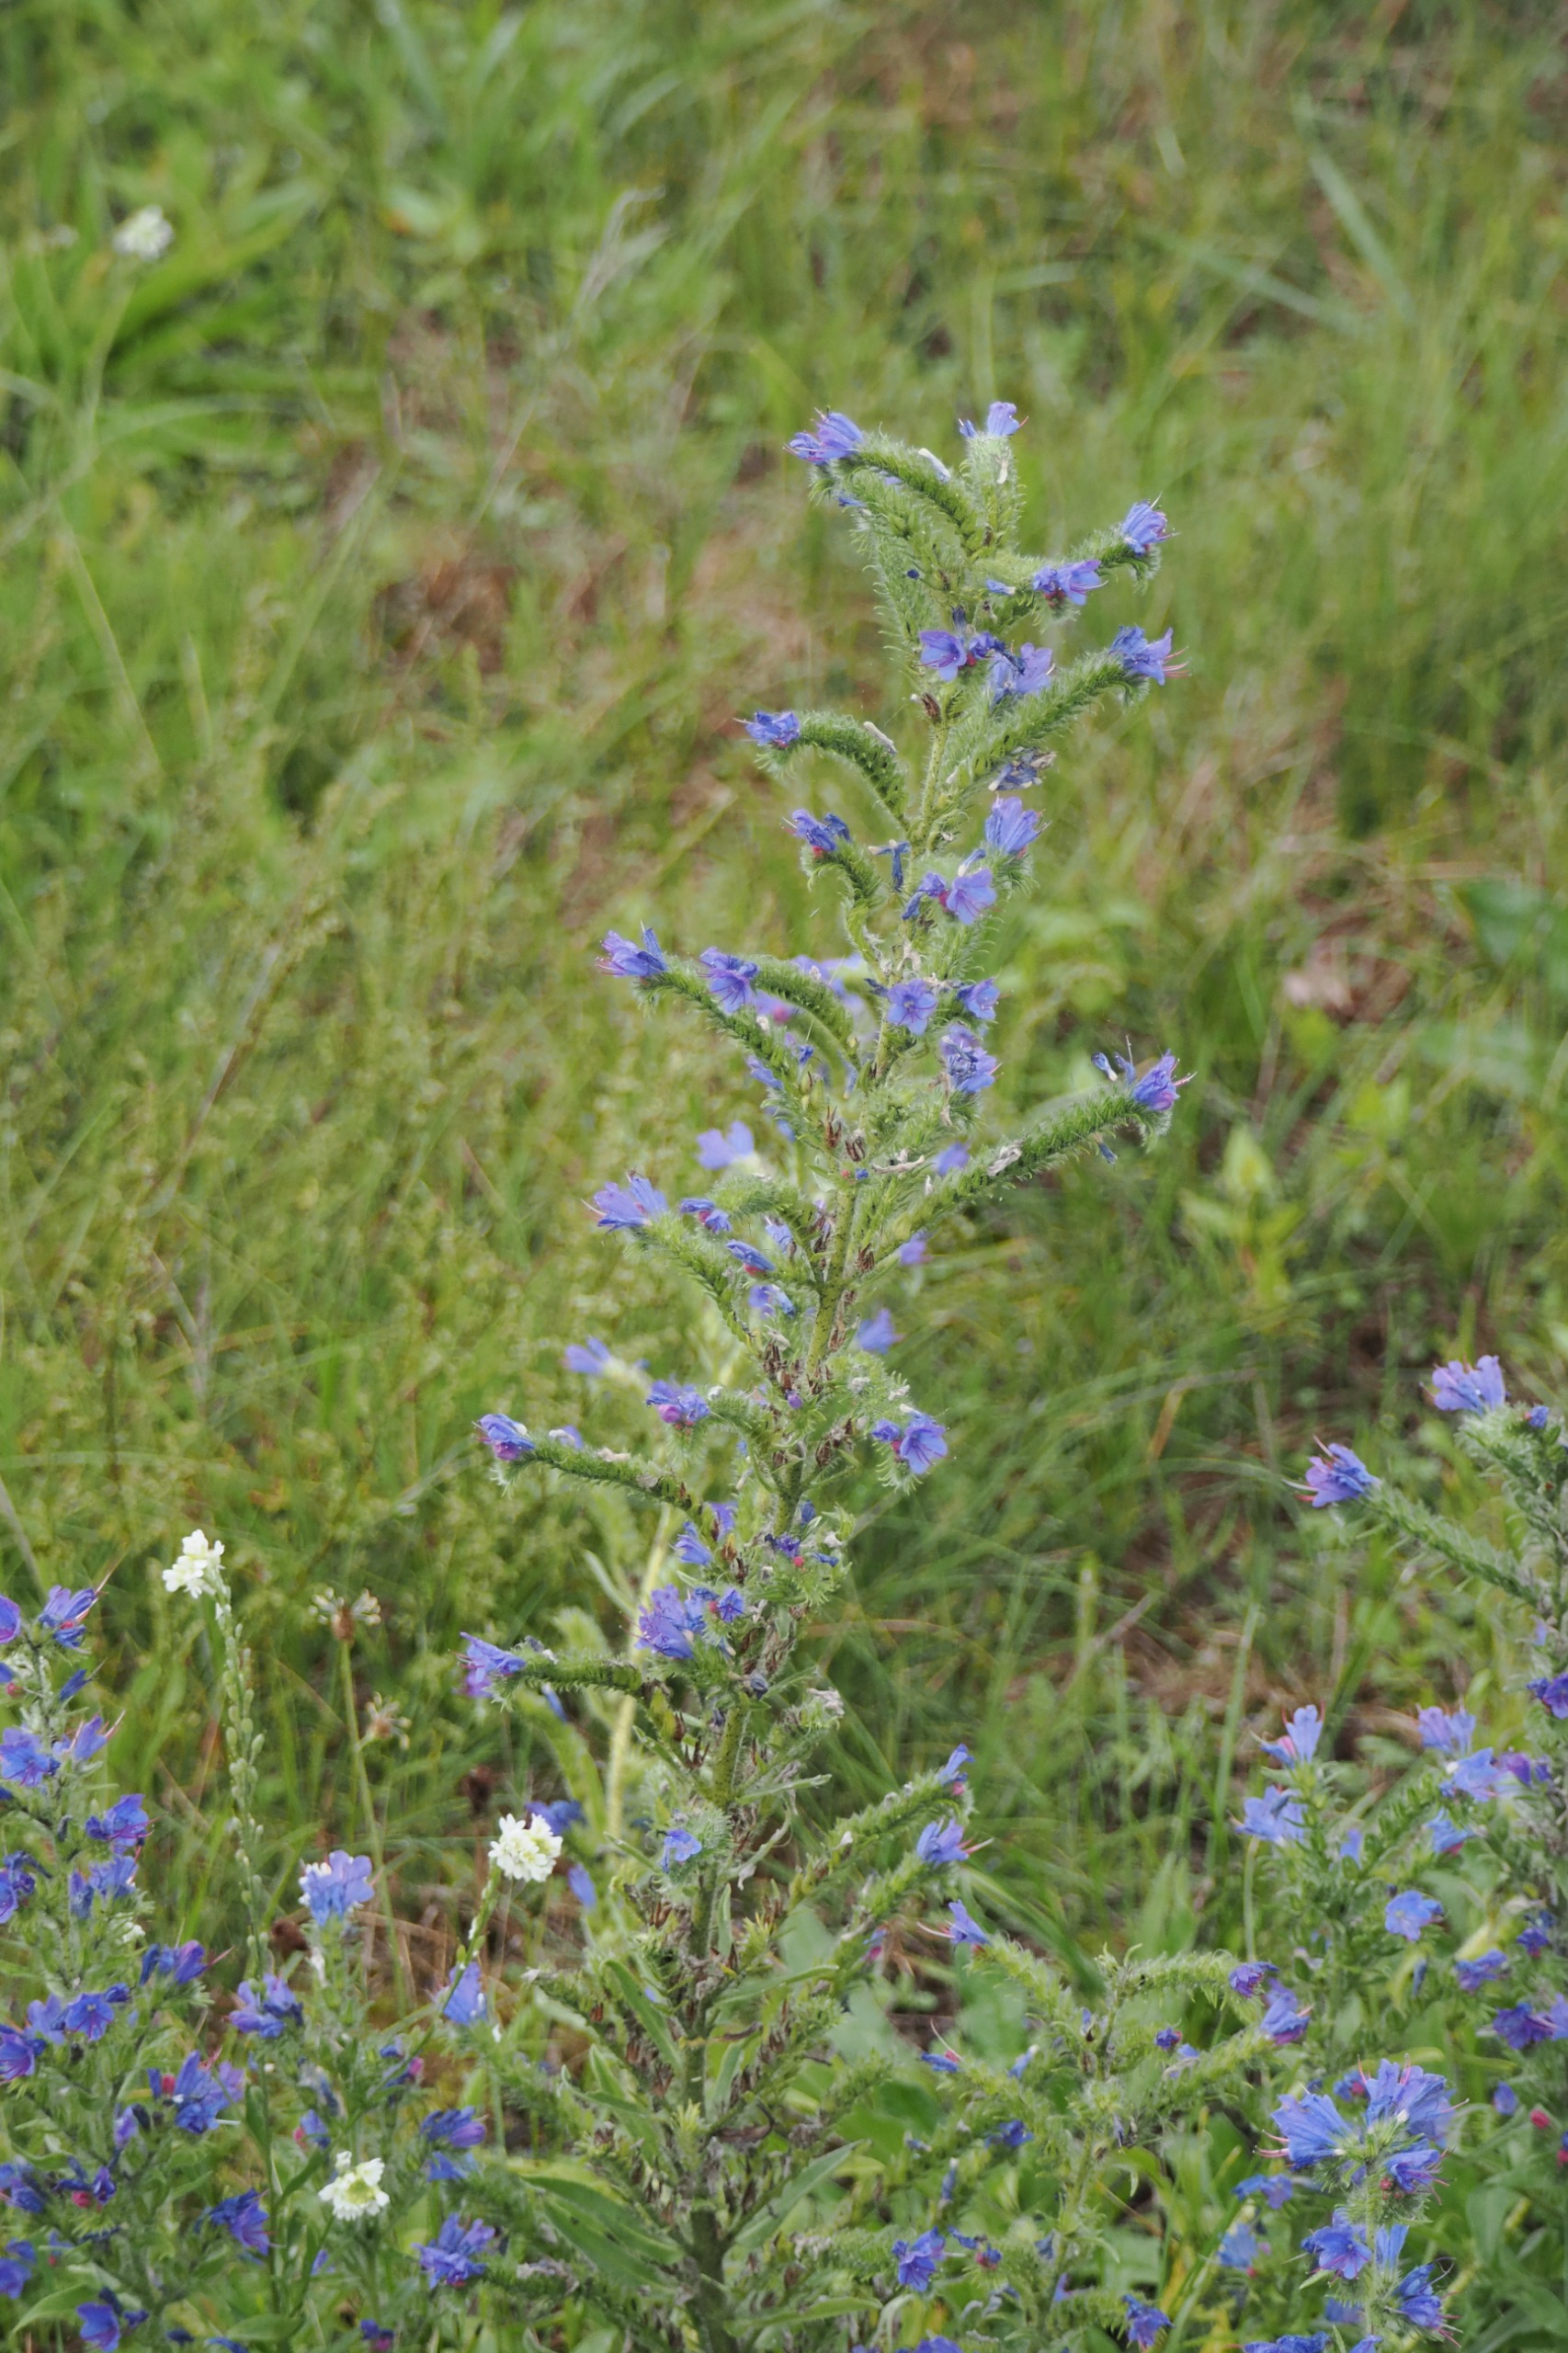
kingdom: Plantae
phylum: Tracheophyta
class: Magnoliopsida
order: Boraginales
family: Boraginaceae
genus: Echium
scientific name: Echium vulgare
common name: Slangehoved
